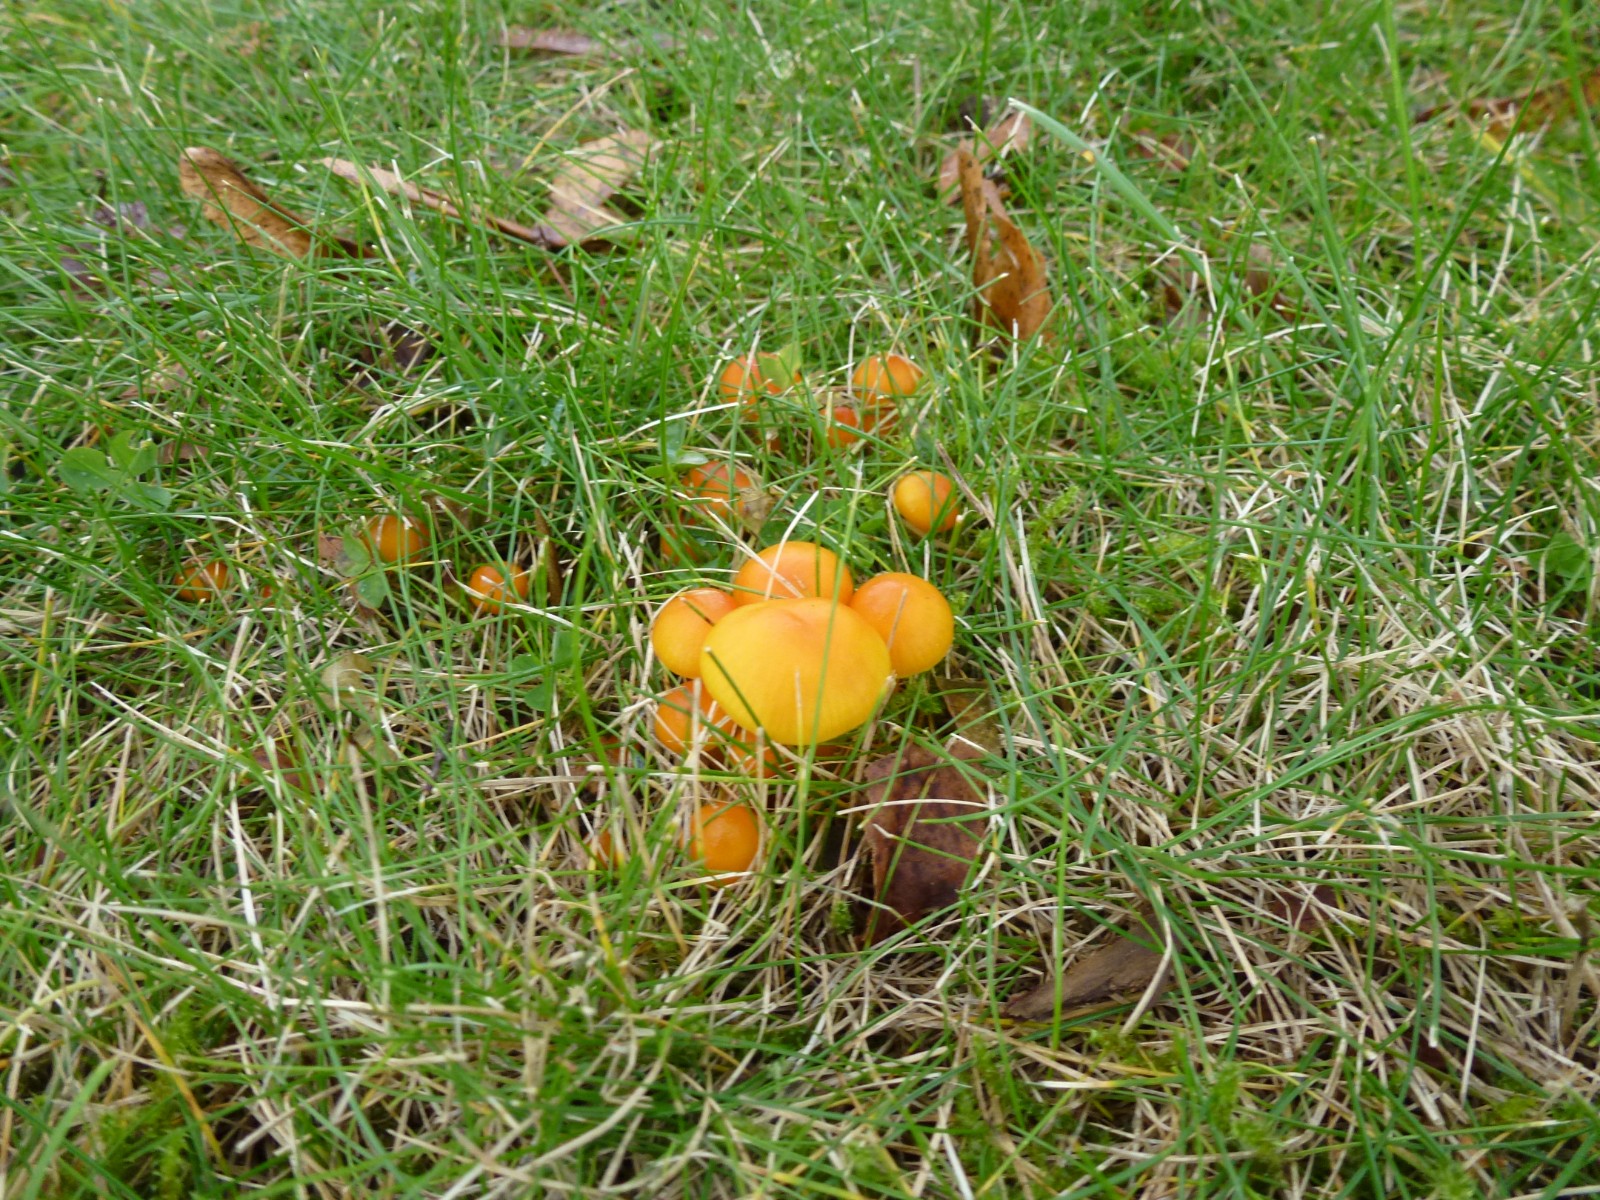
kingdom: Fungi
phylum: Basidiomycota
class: Agaricomycetes
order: Agaricales
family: Hygrophoraceae
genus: Hygrocybe
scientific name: Hygrocybe ceracea
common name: voksgul vokshat
